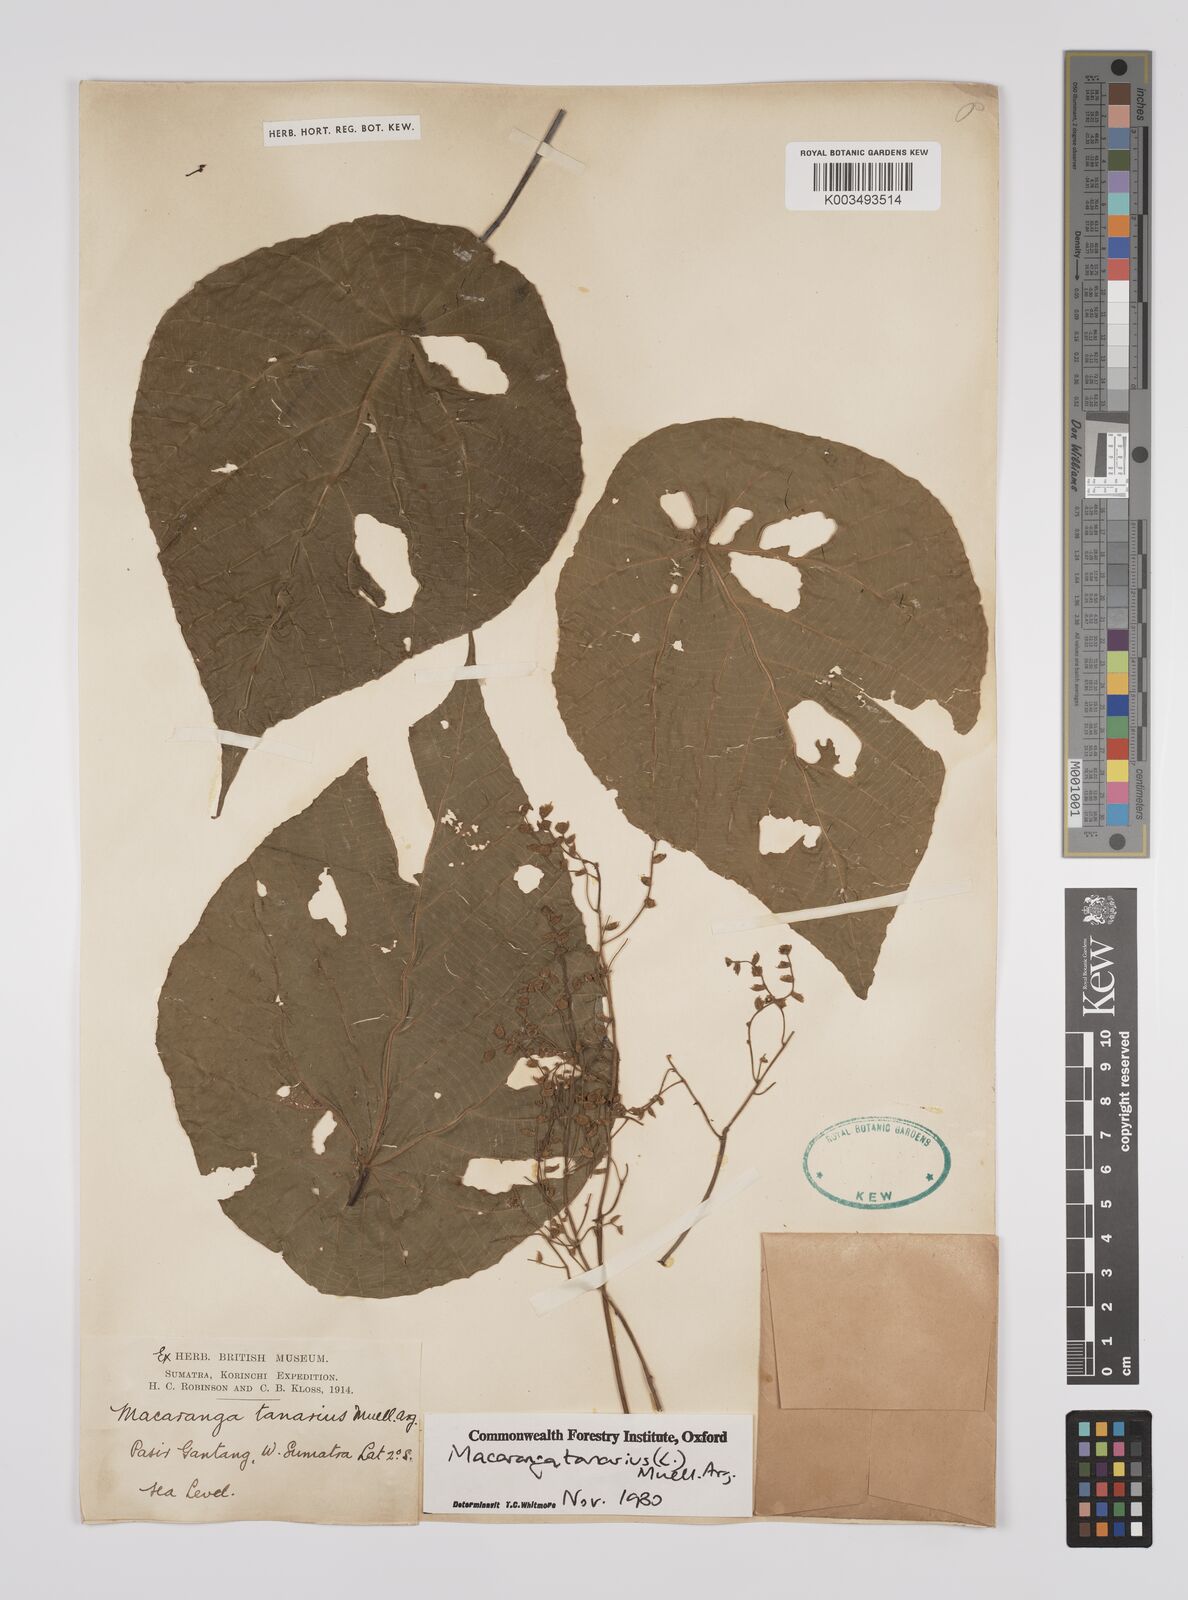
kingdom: Plantae
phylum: Tracheophyta
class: Magnoliopsida
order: Malpighiales
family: Euphorbiaceae
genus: Macaranga
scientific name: Macaranga tanarius
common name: Parasol leaf tree
